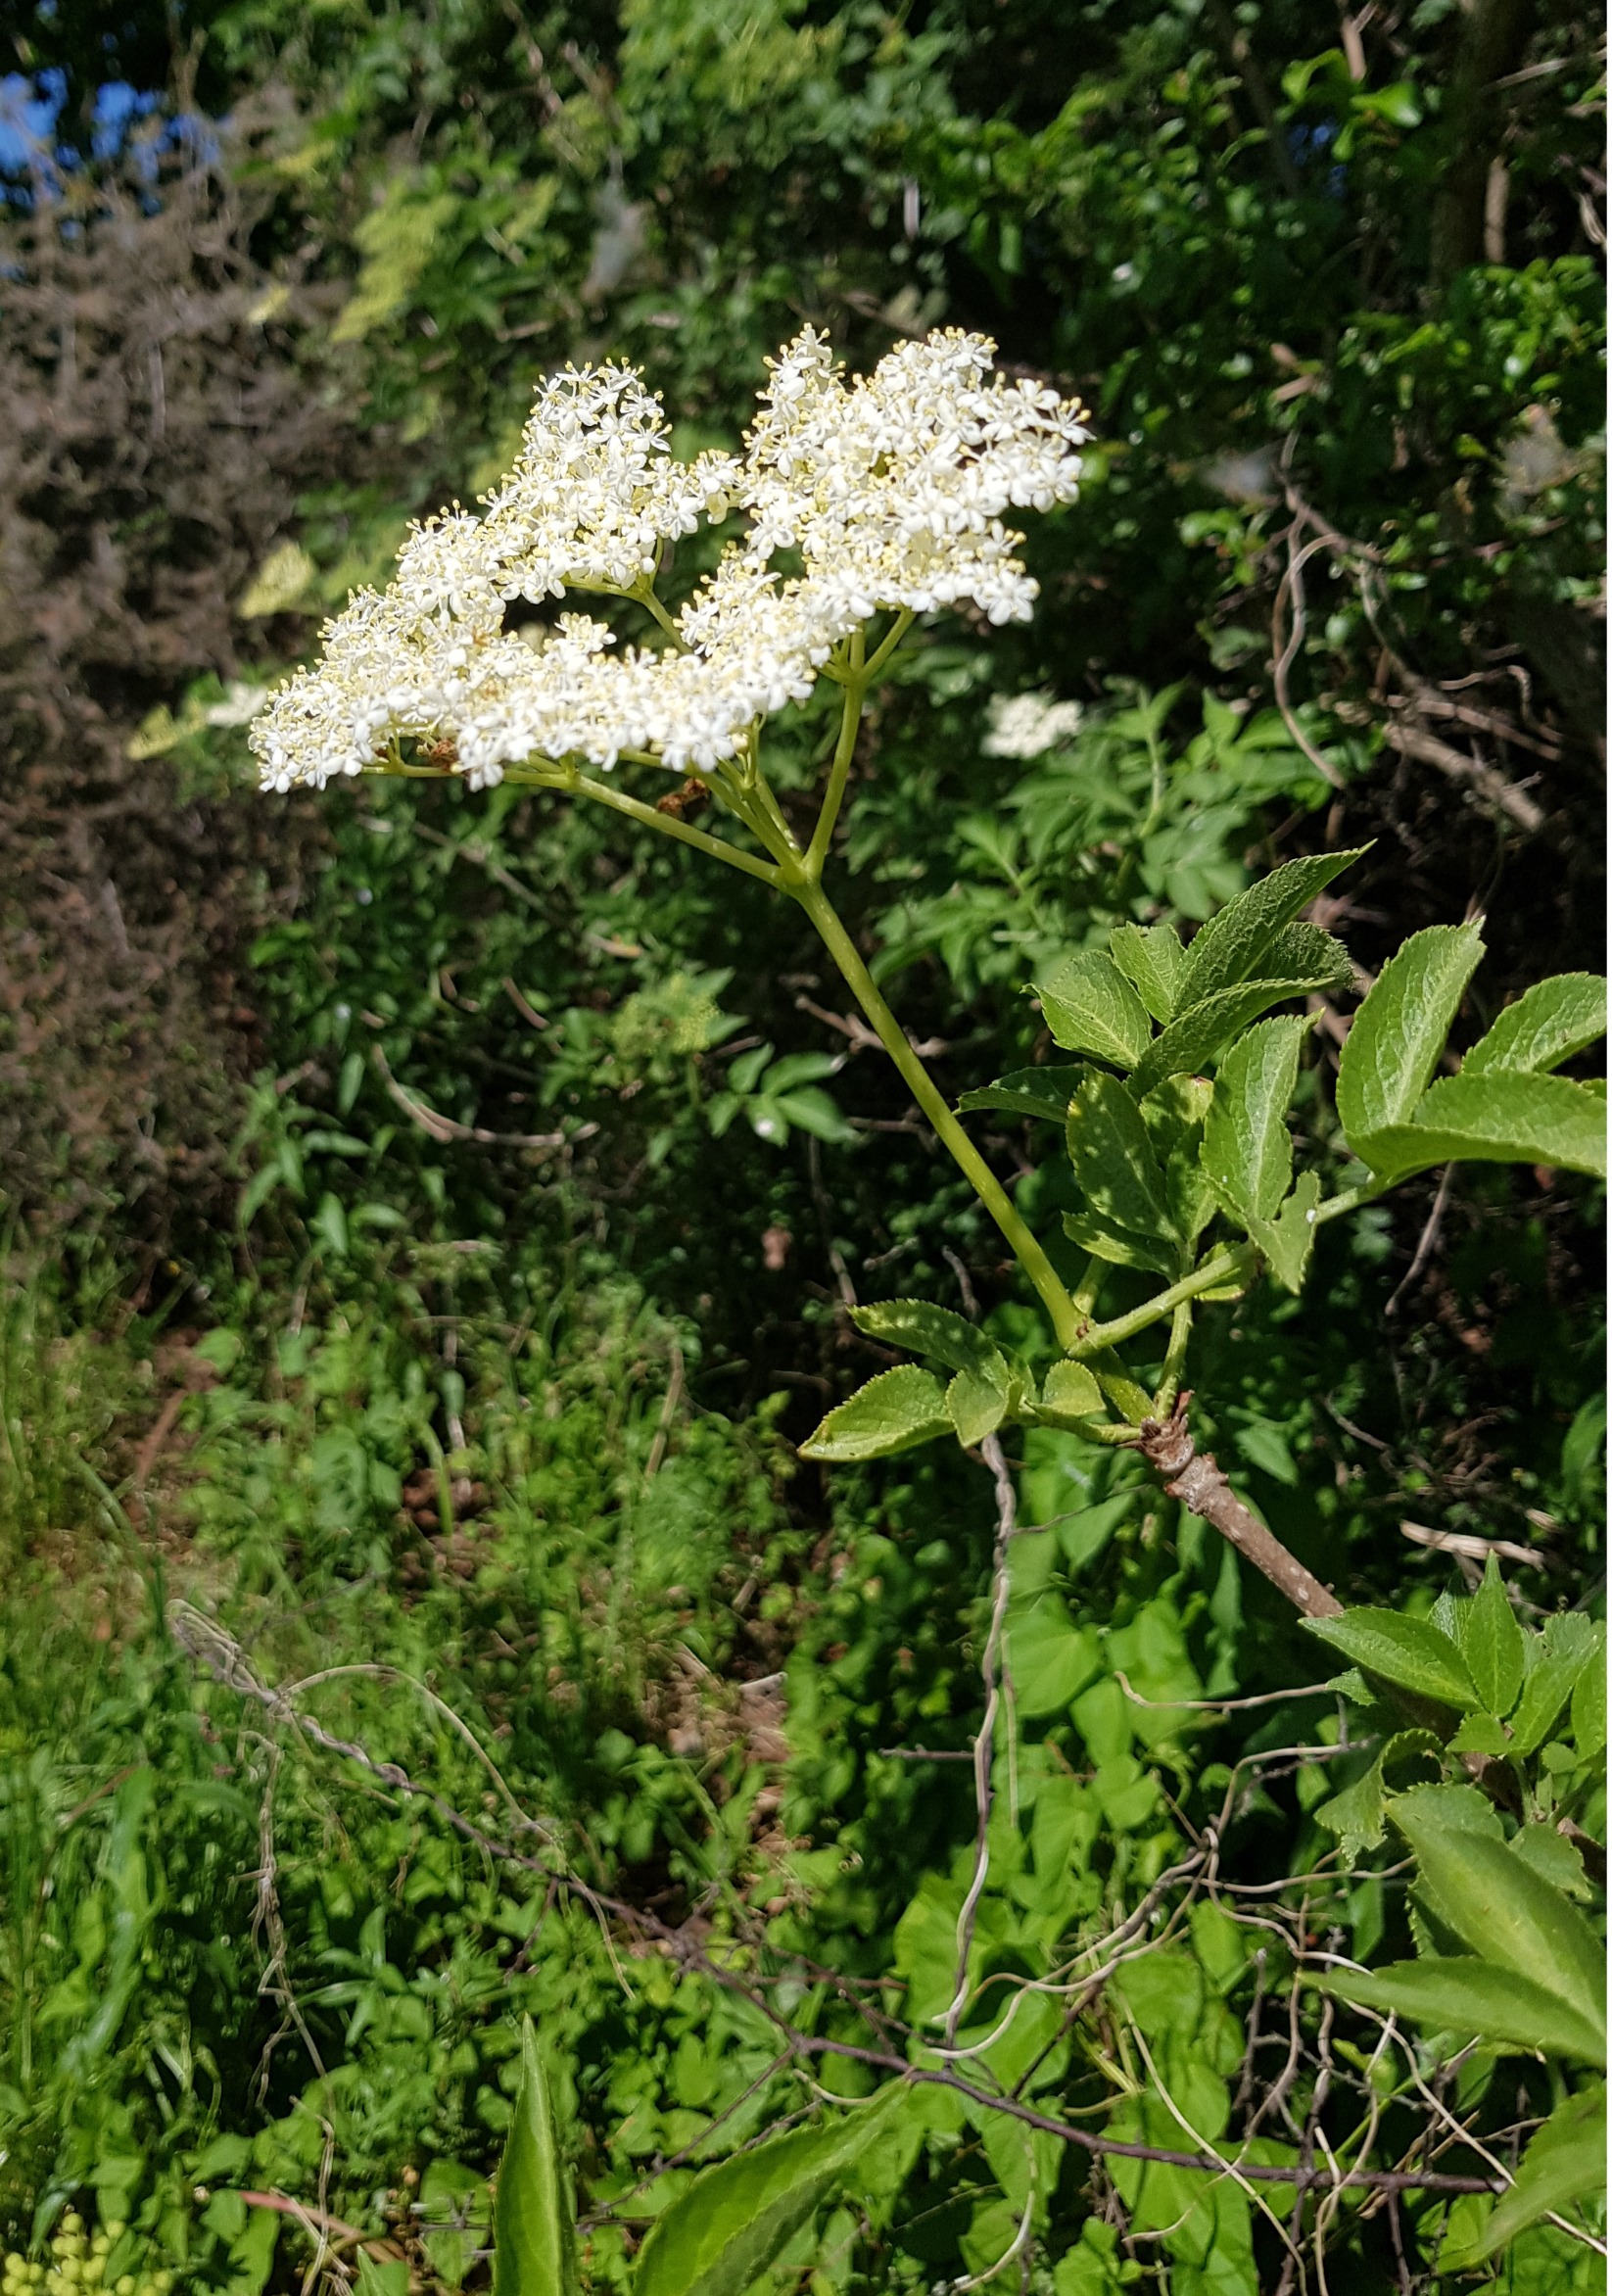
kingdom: Plantae
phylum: Tracheophyta
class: Magnoliopsida
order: Dipsacales
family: Viburnaceae
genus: Sambucus
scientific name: Sambucus nigra
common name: Almindelig hyld
